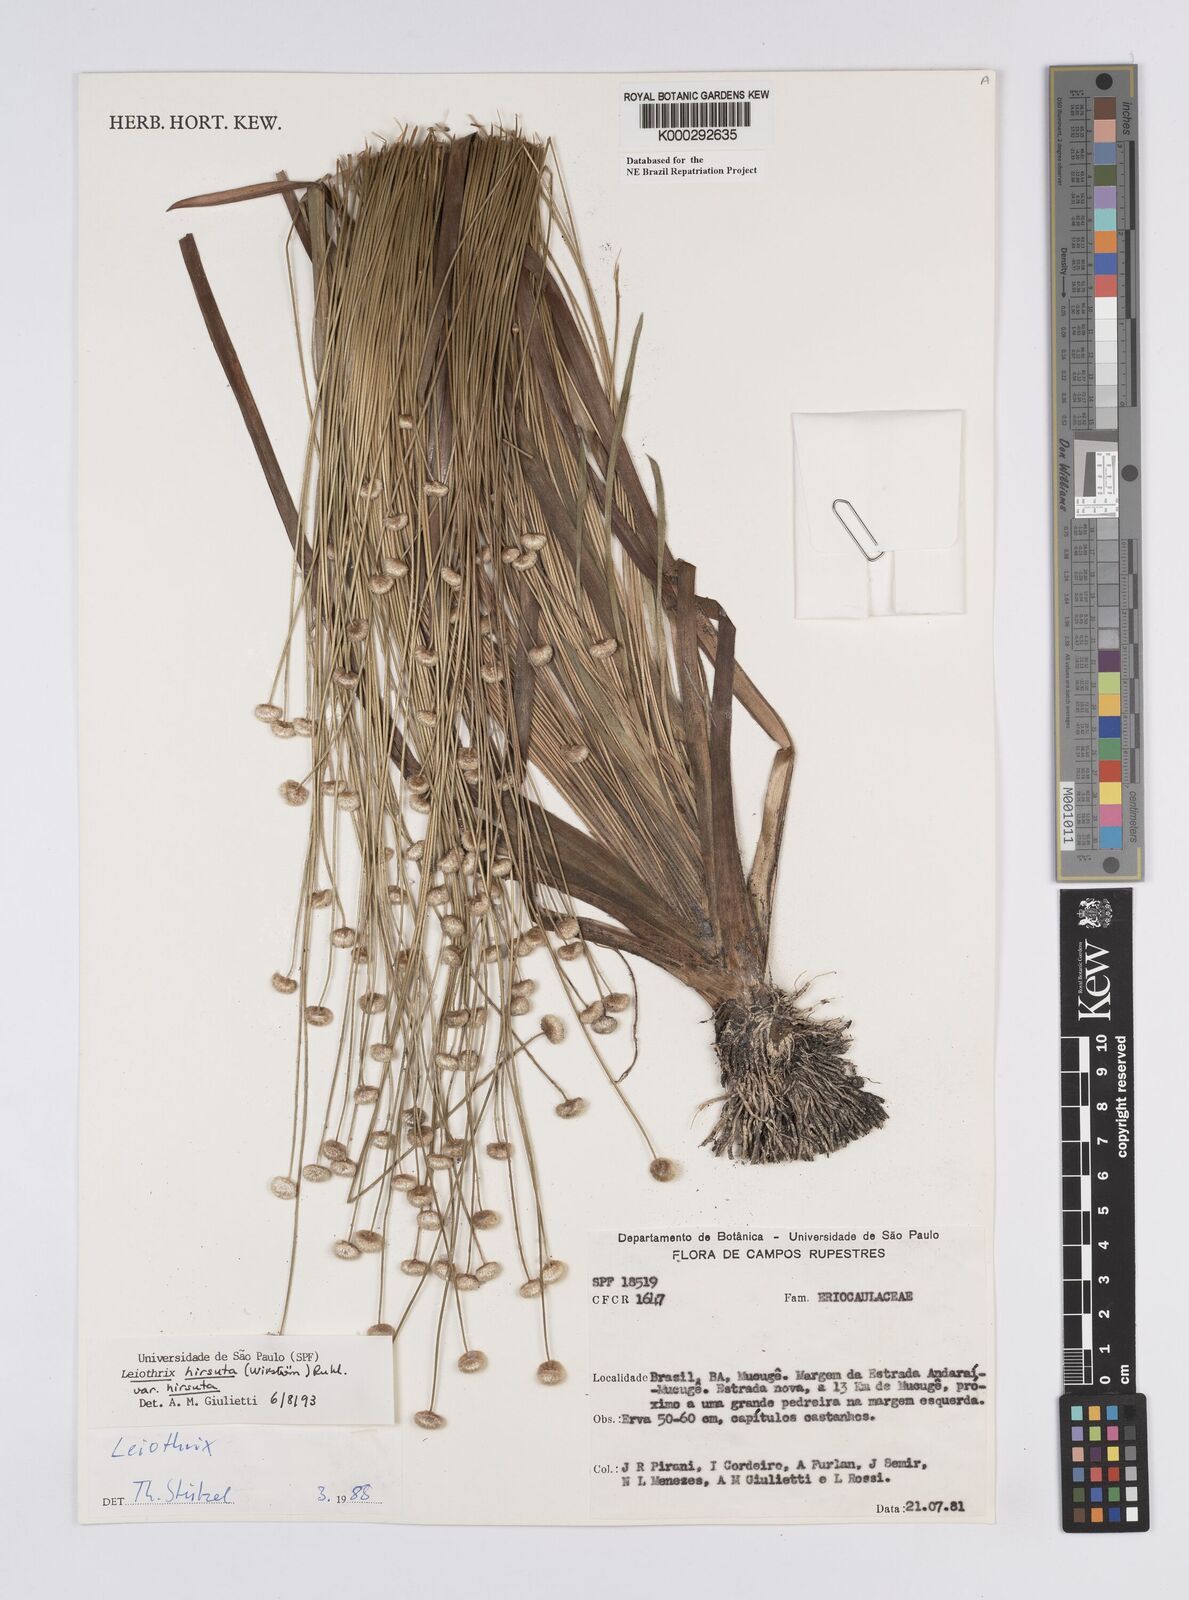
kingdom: Plantae
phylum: Tracheophyta
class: Liliopsida
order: Poales
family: Eriocaulaceae
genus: Leiothrix
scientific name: Leiothrix hirsuta
